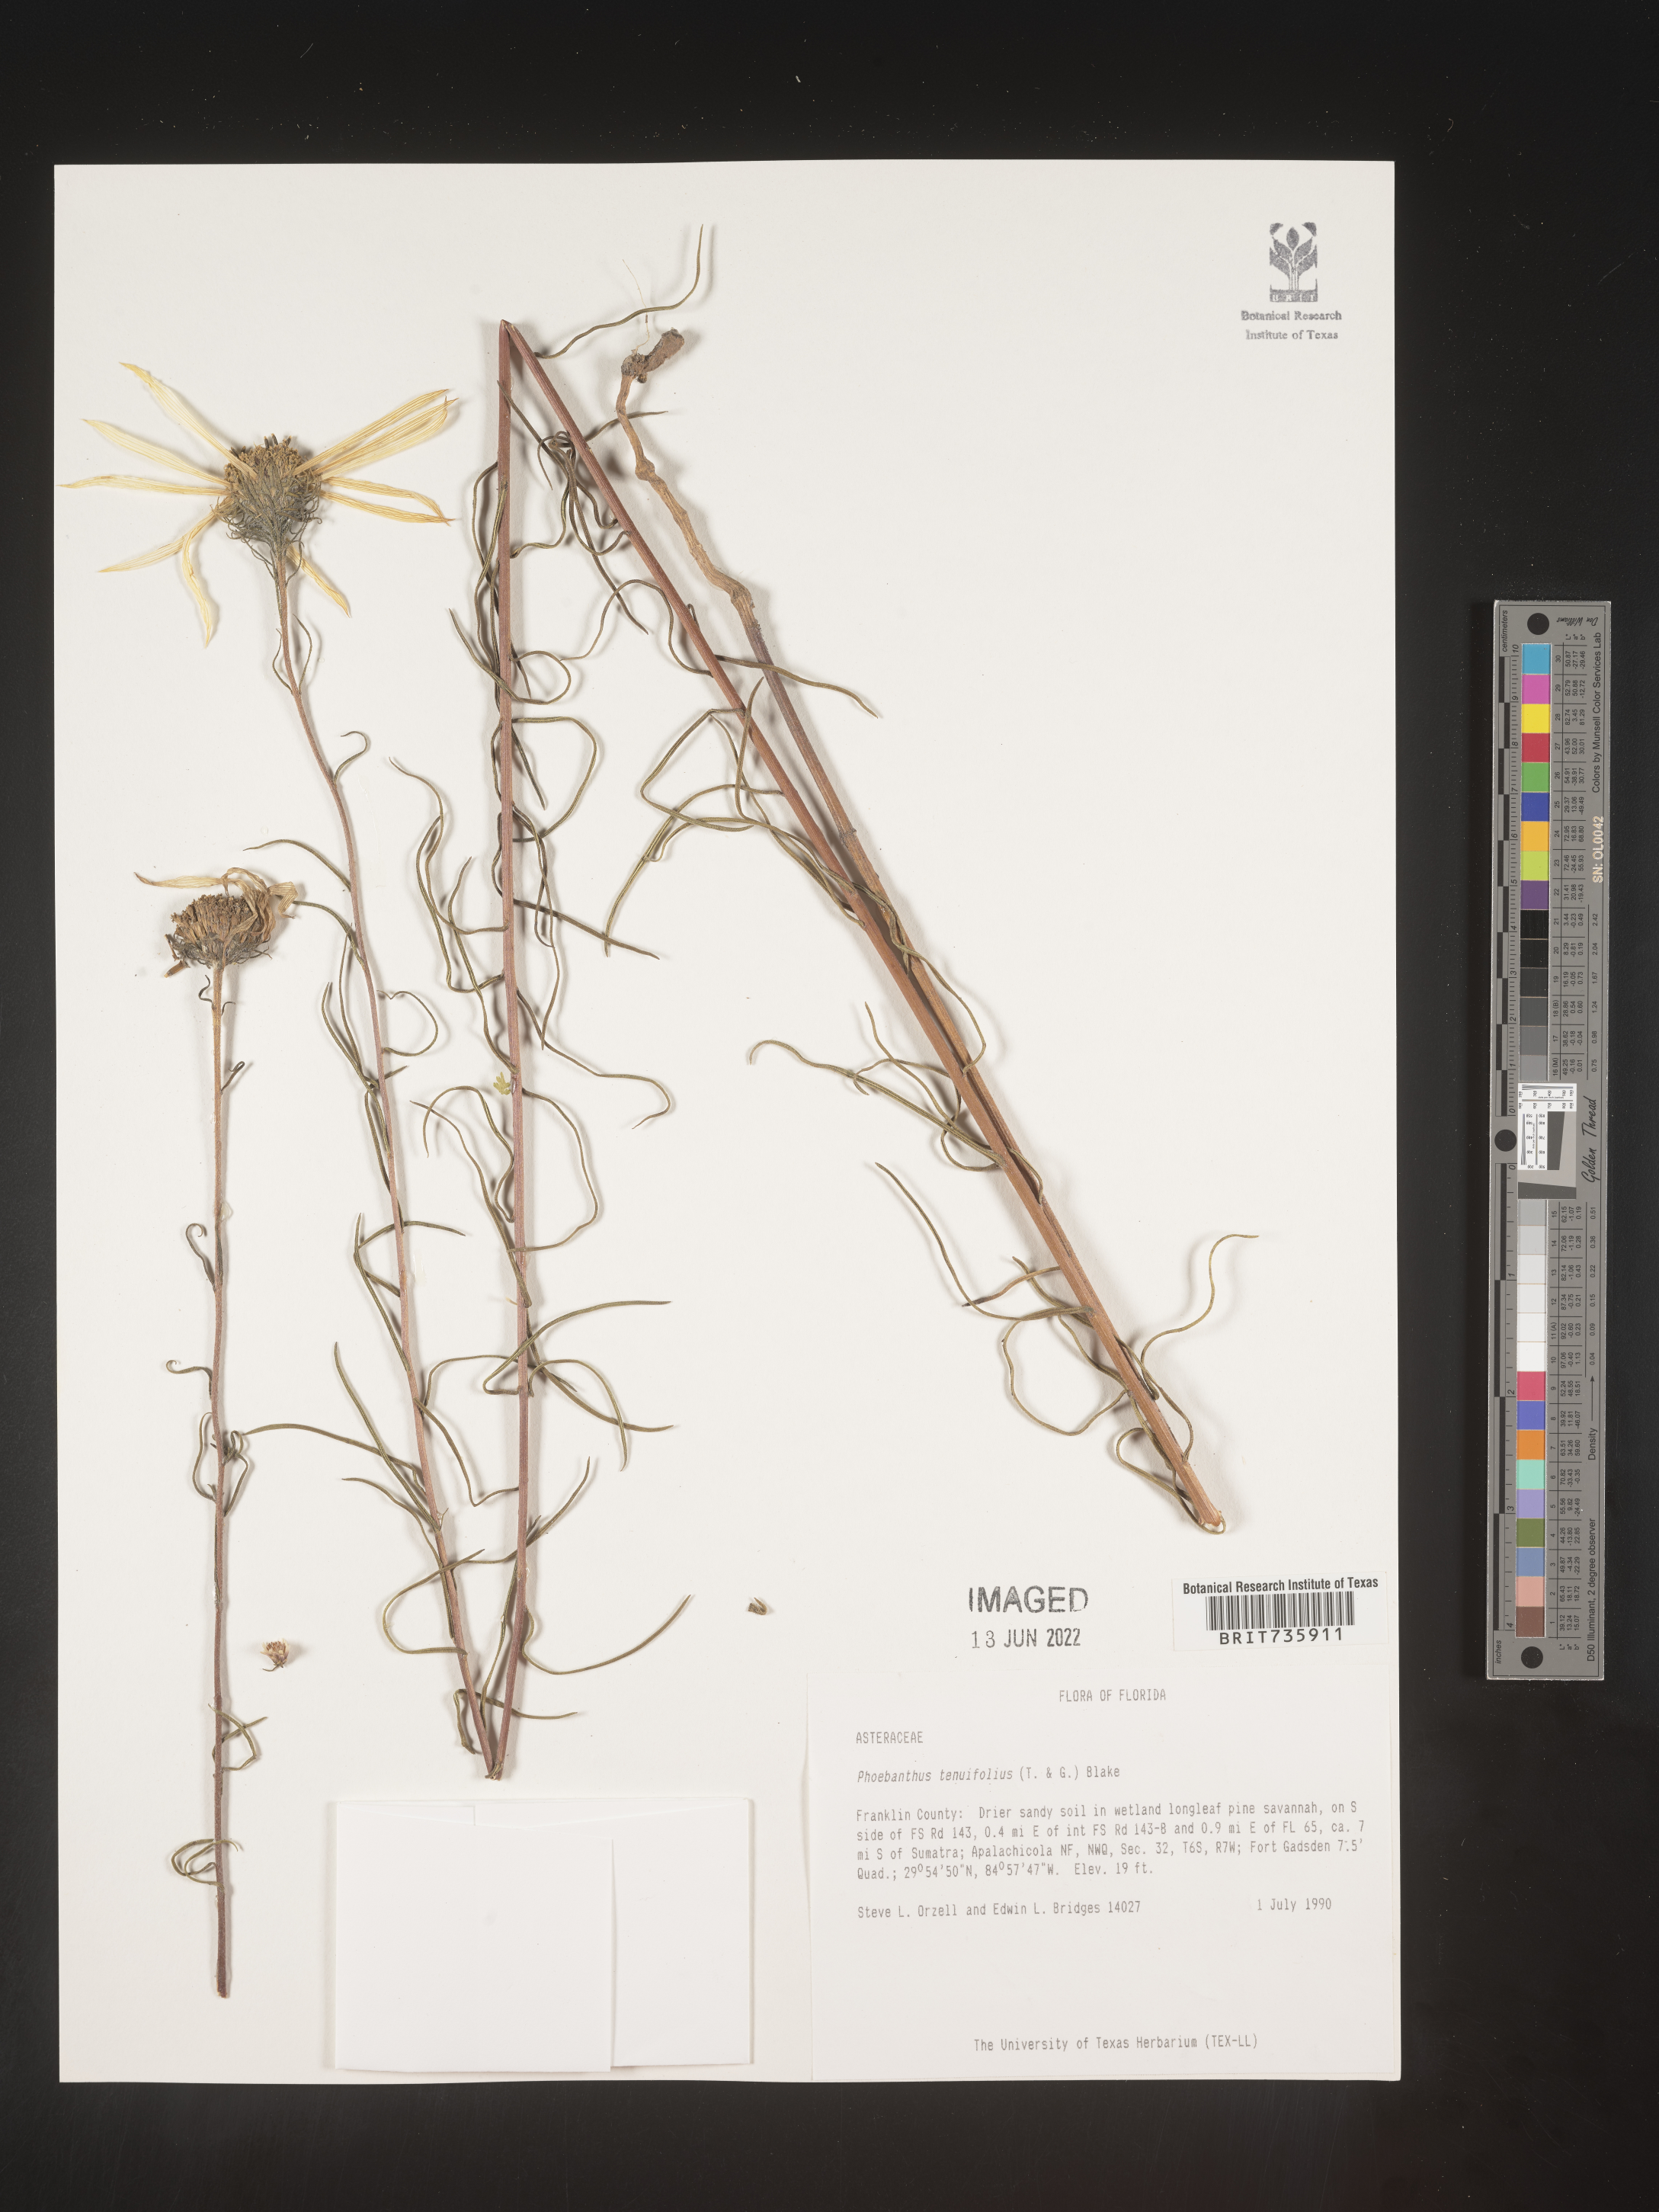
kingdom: Plantae
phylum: Tracheophyta
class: Magnoliopsida
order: Asterales
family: Asteraceae
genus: Phoebanthus
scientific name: Phoebanthus tenuifolia
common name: Pineland false sunflower
